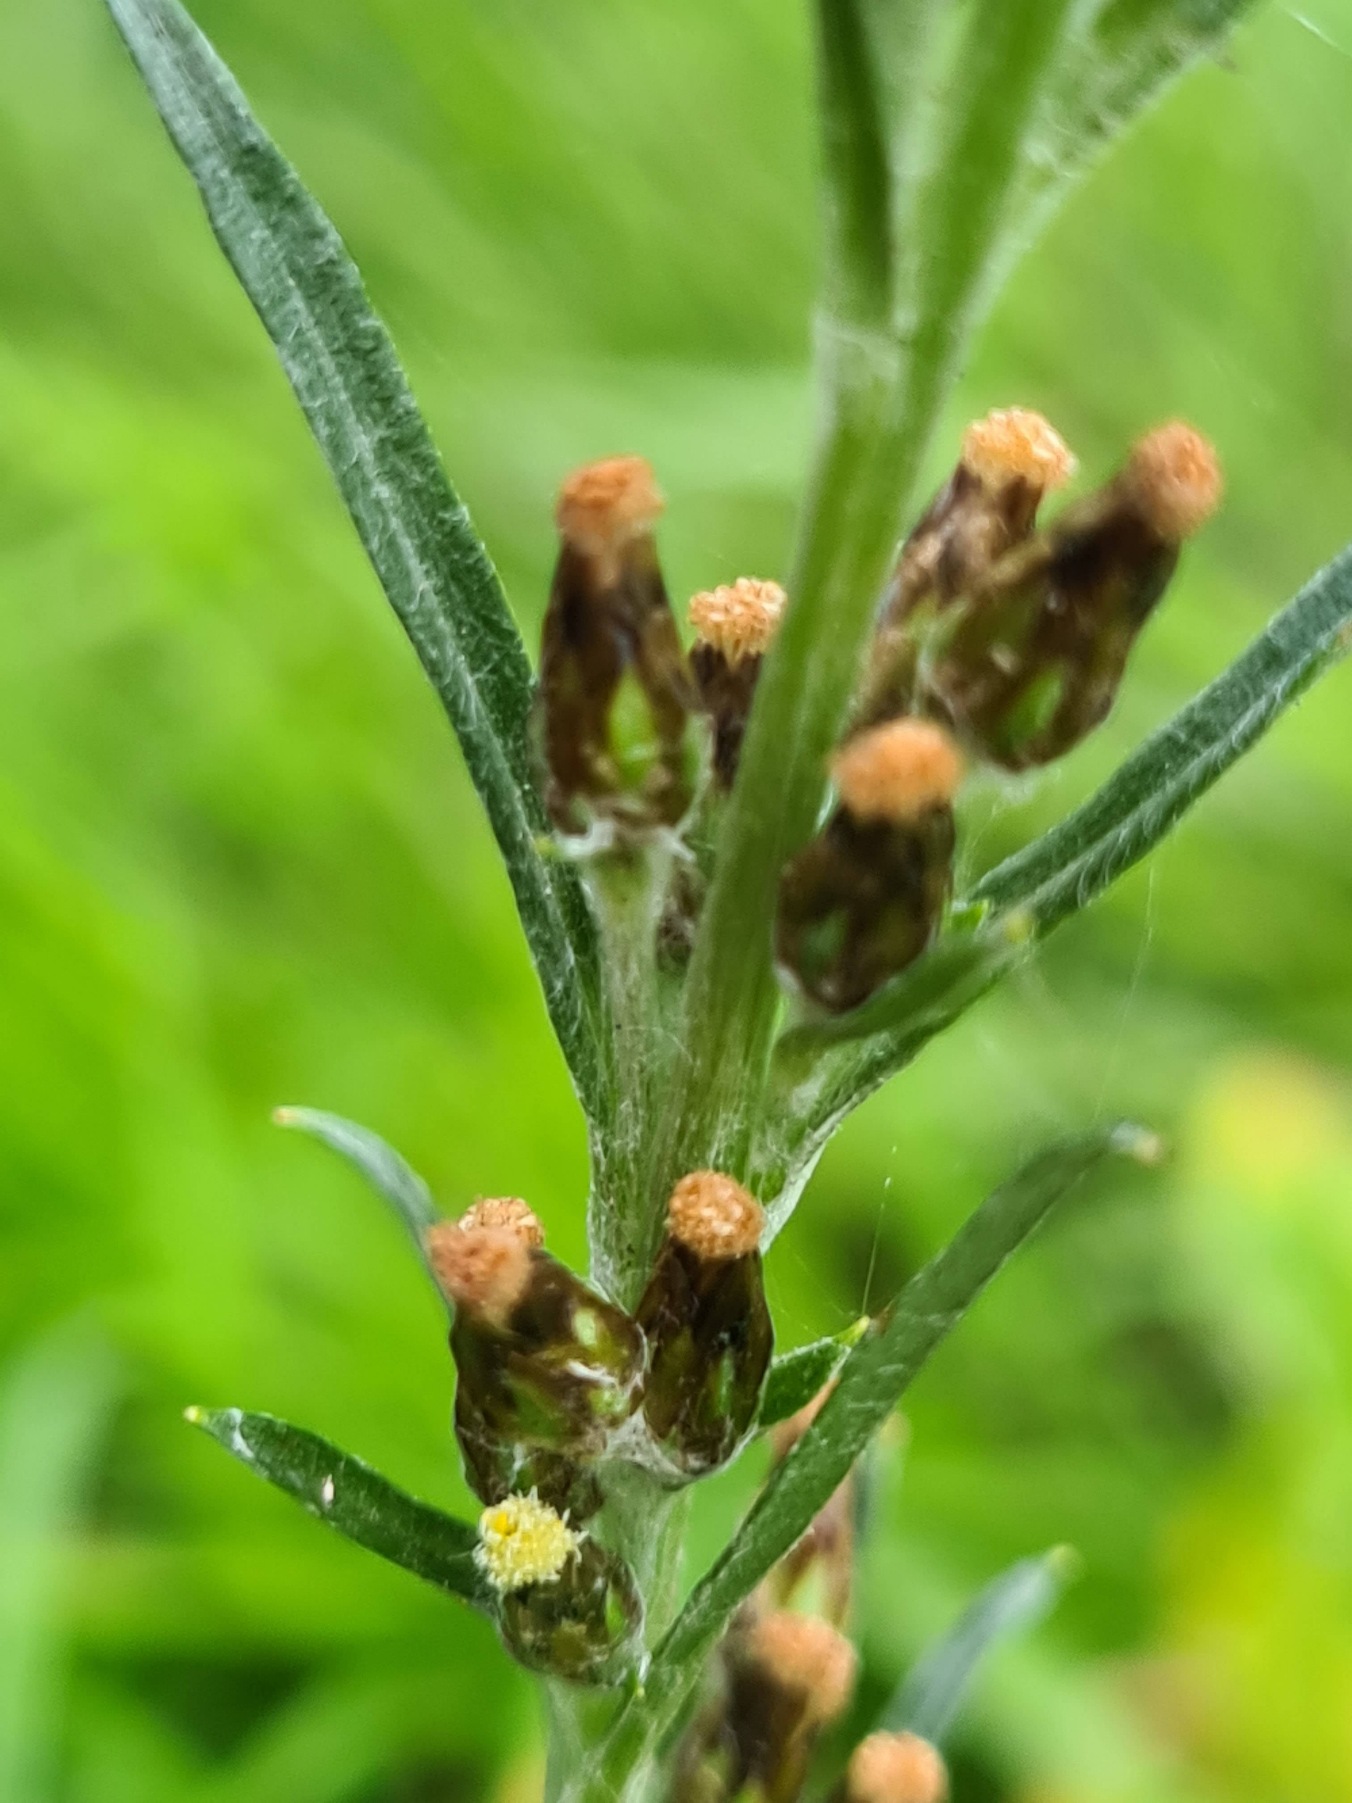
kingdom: Plantae
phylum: Tracheophyta
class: Magnoliopsida
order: Asterales
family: Asteraceae
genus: Omalotheca
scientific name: Omalotheca sylvatica
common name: Rank evighedsblomst
